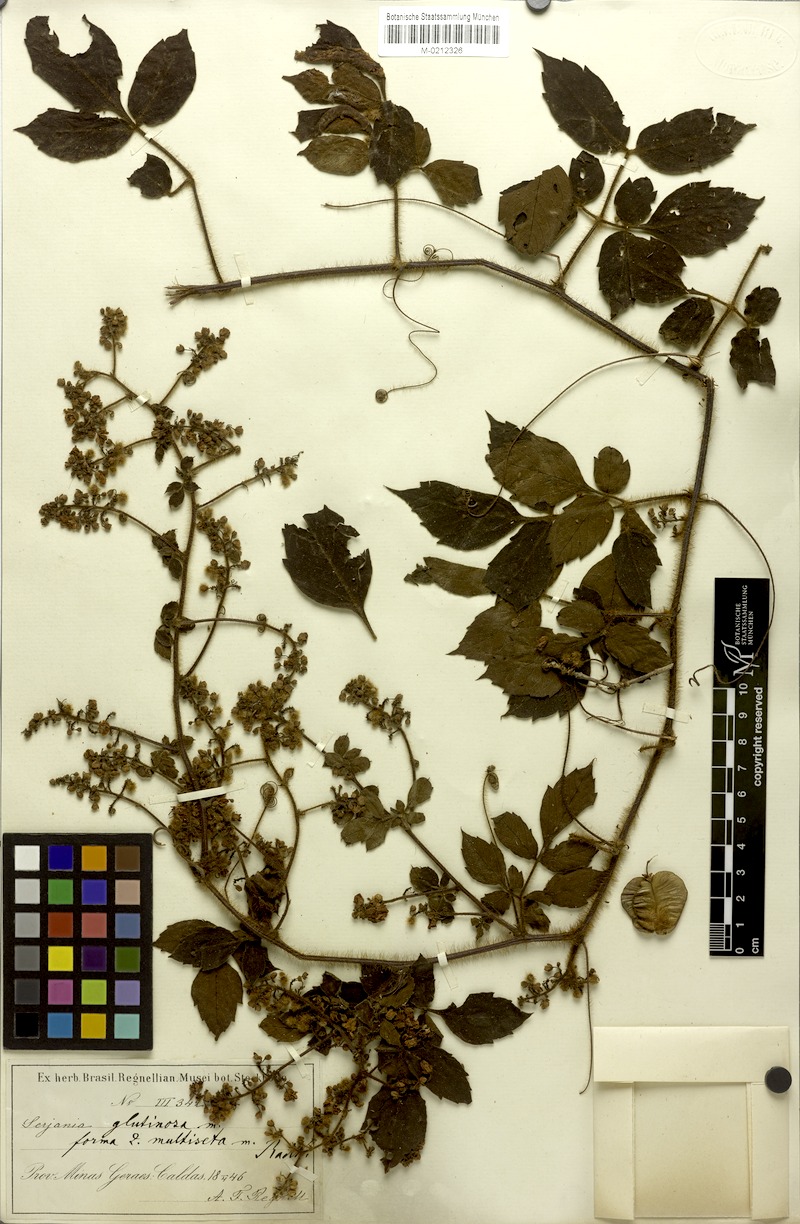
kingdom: Plantae
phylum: Tracheophyta
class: Magnoliopsida
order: Sapindales
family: Sapindaceae
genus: Serjania
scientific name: Serjania glutinosa
